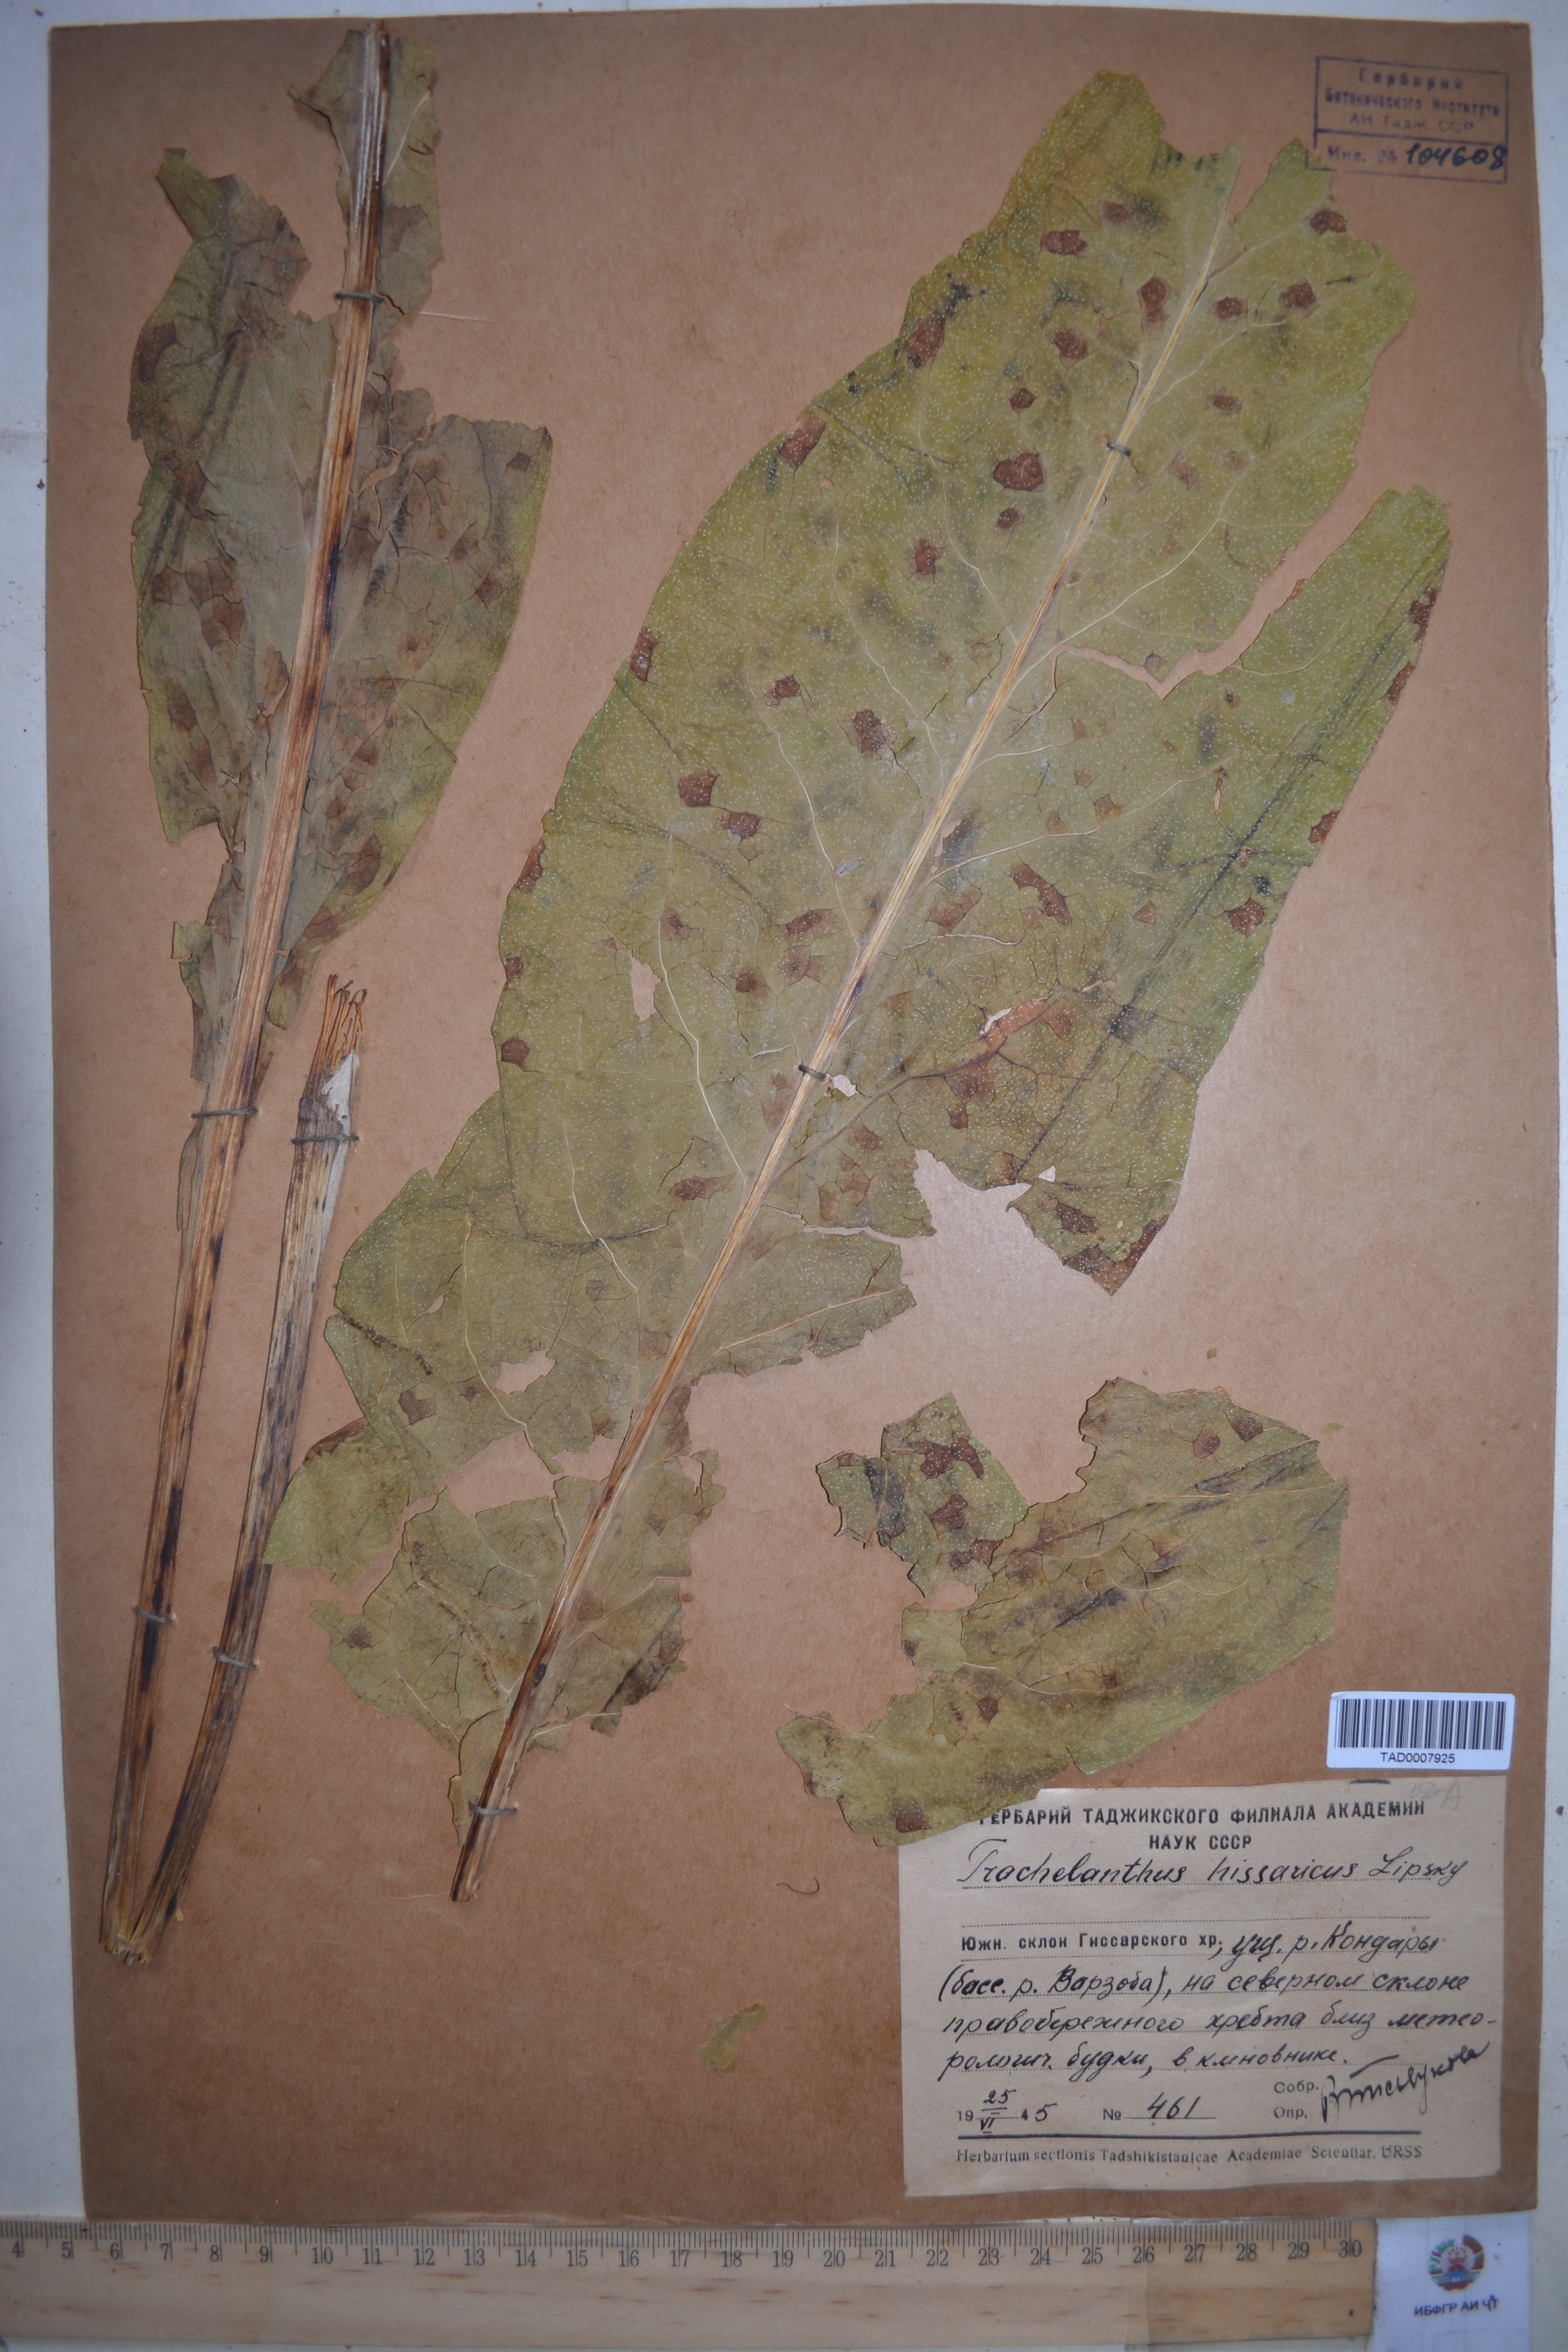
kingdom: Plantae
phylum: Tracheophyta
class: Magnoliopsida
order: Boraginales
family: Boraginaceae
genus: Lindelofia
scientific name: Lindelofia hissarica
